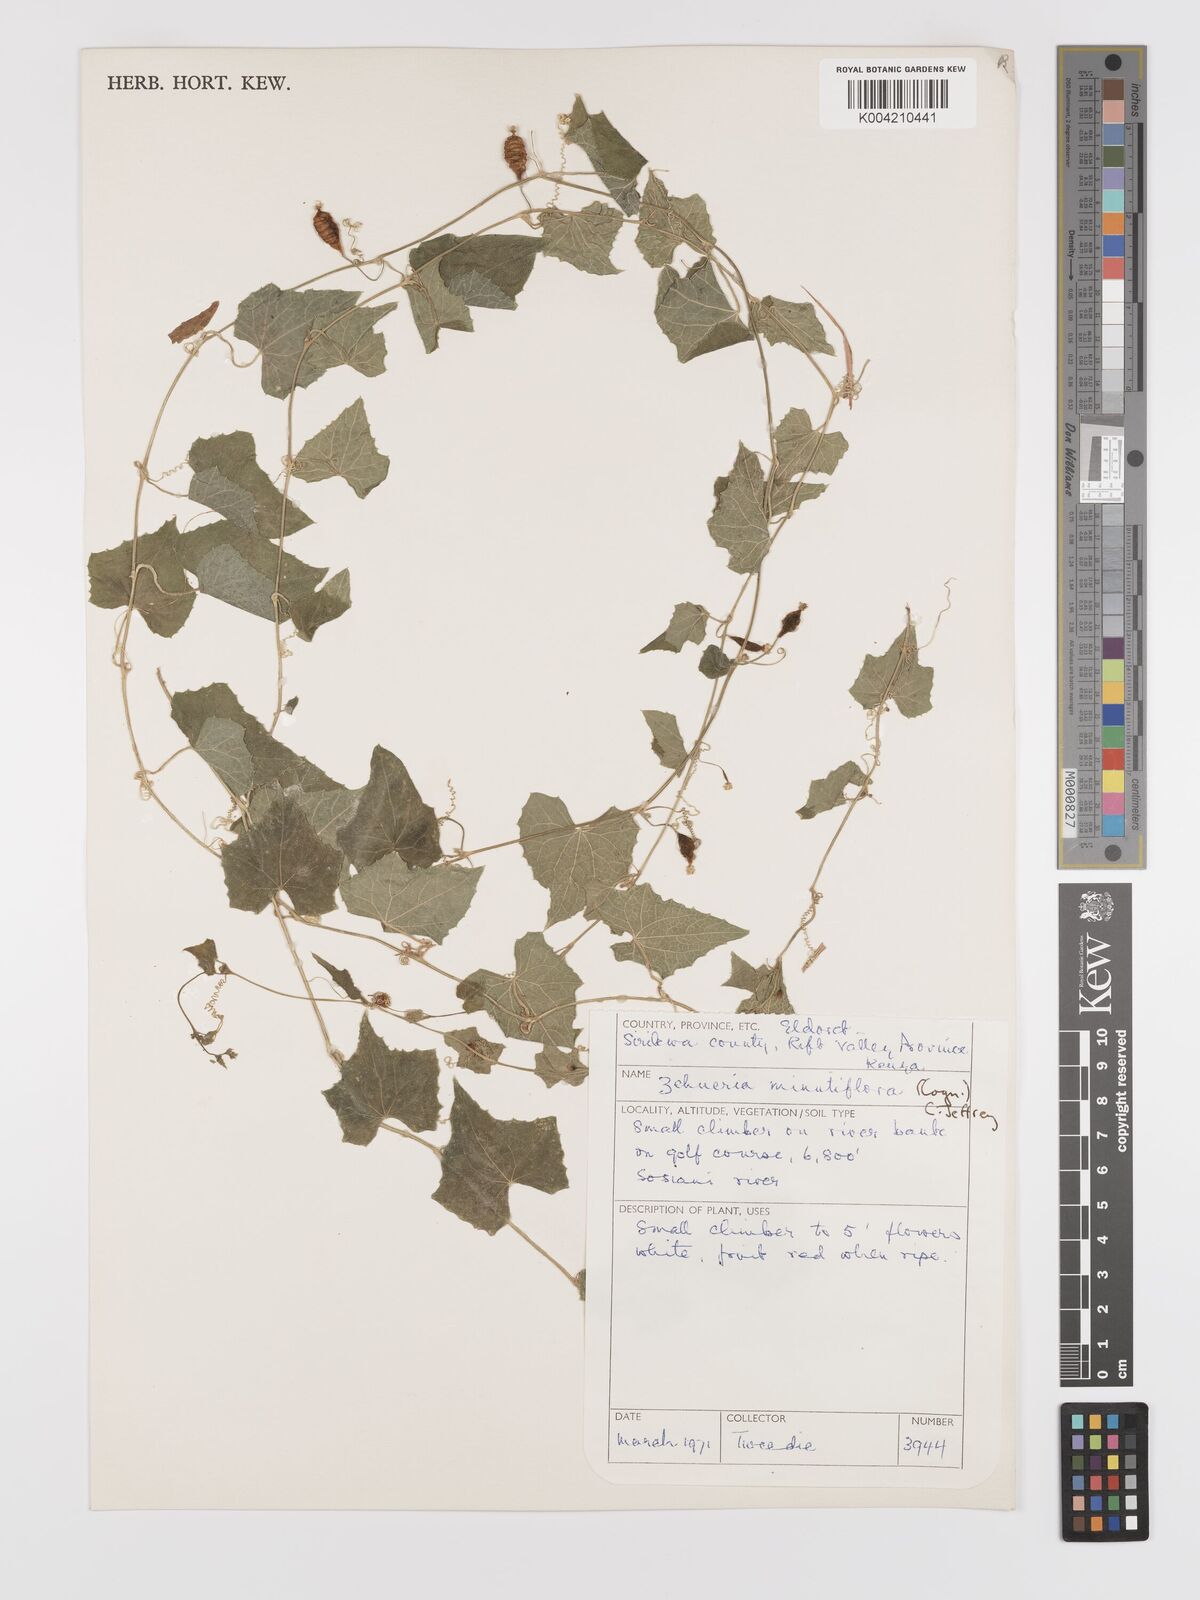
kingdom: Plantae
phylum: Tracheophyta
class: Magnoliopsida
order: Cucurbitales
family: Cucurbitaceae
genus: Zehneria
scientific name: Zehneria minutiflora
